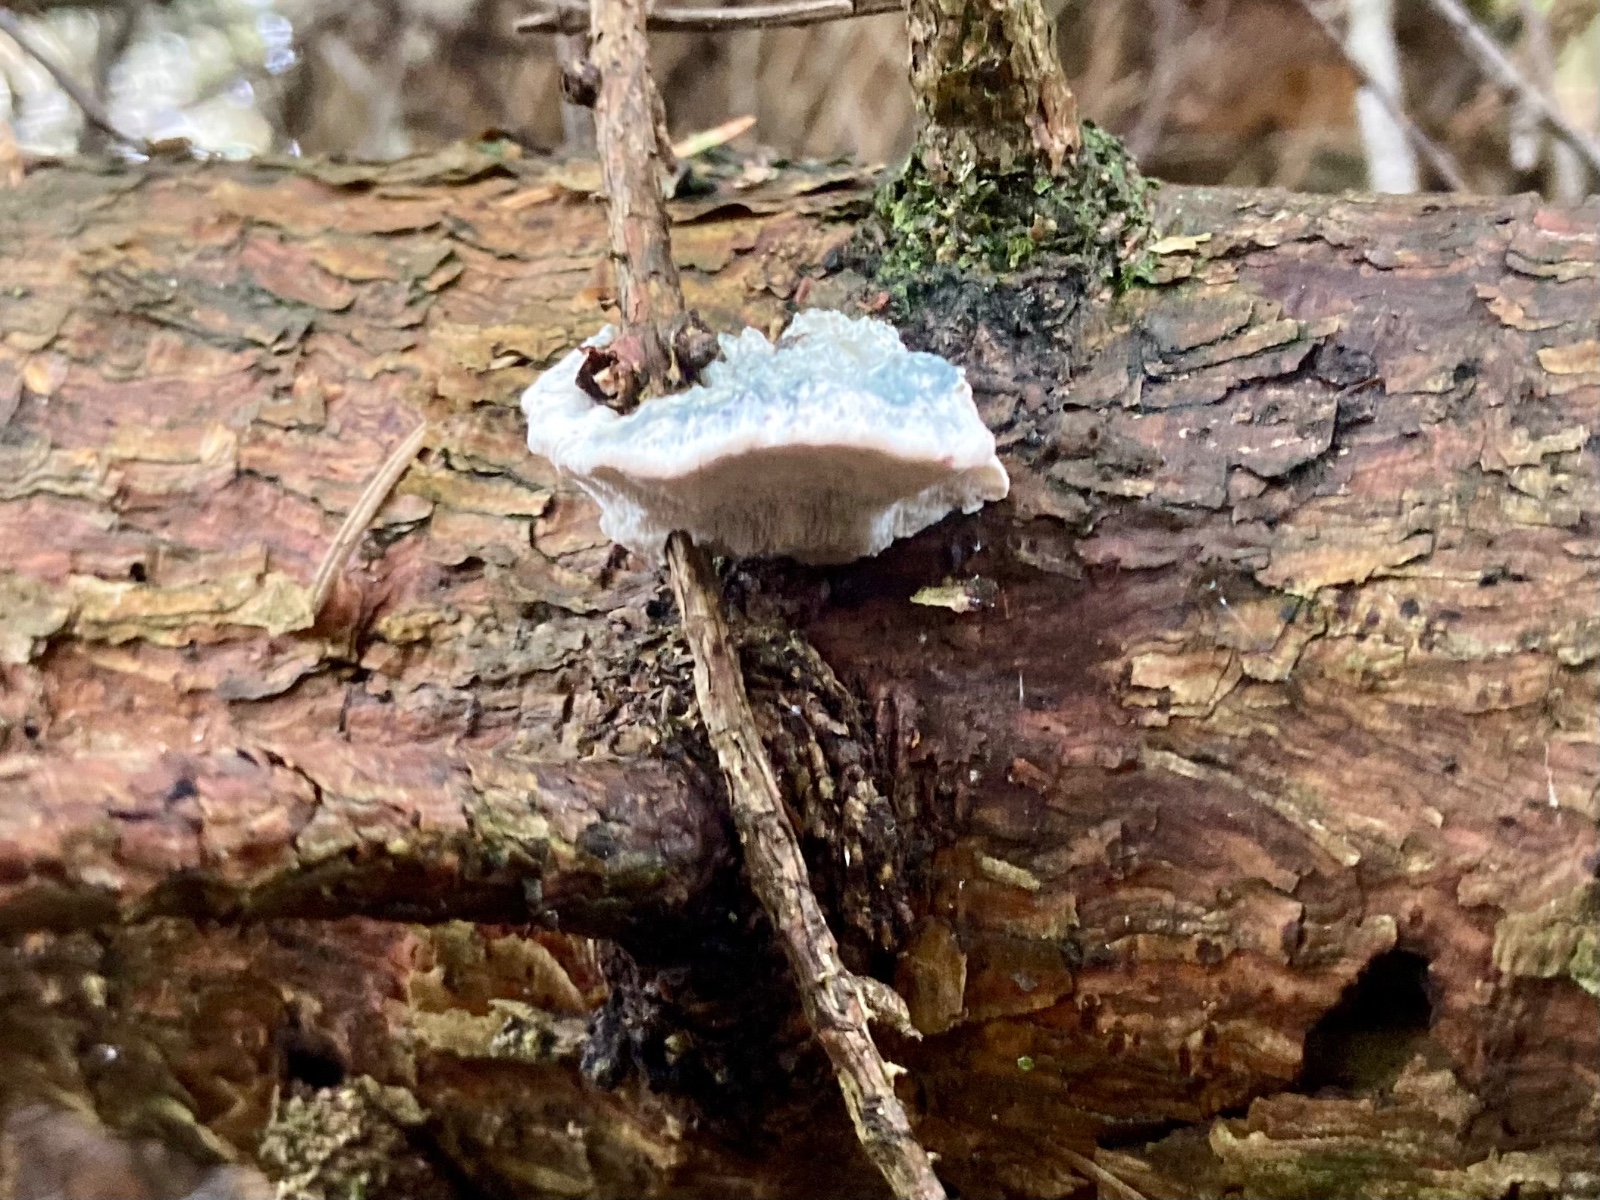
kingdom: Fungi
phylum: Basidiomycota
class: Agaricomycetes
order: Polyporales
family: Polyporaceae
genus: Cyanosporus
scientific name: Cyanosporus caesius
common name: blålig kødporesvamp
